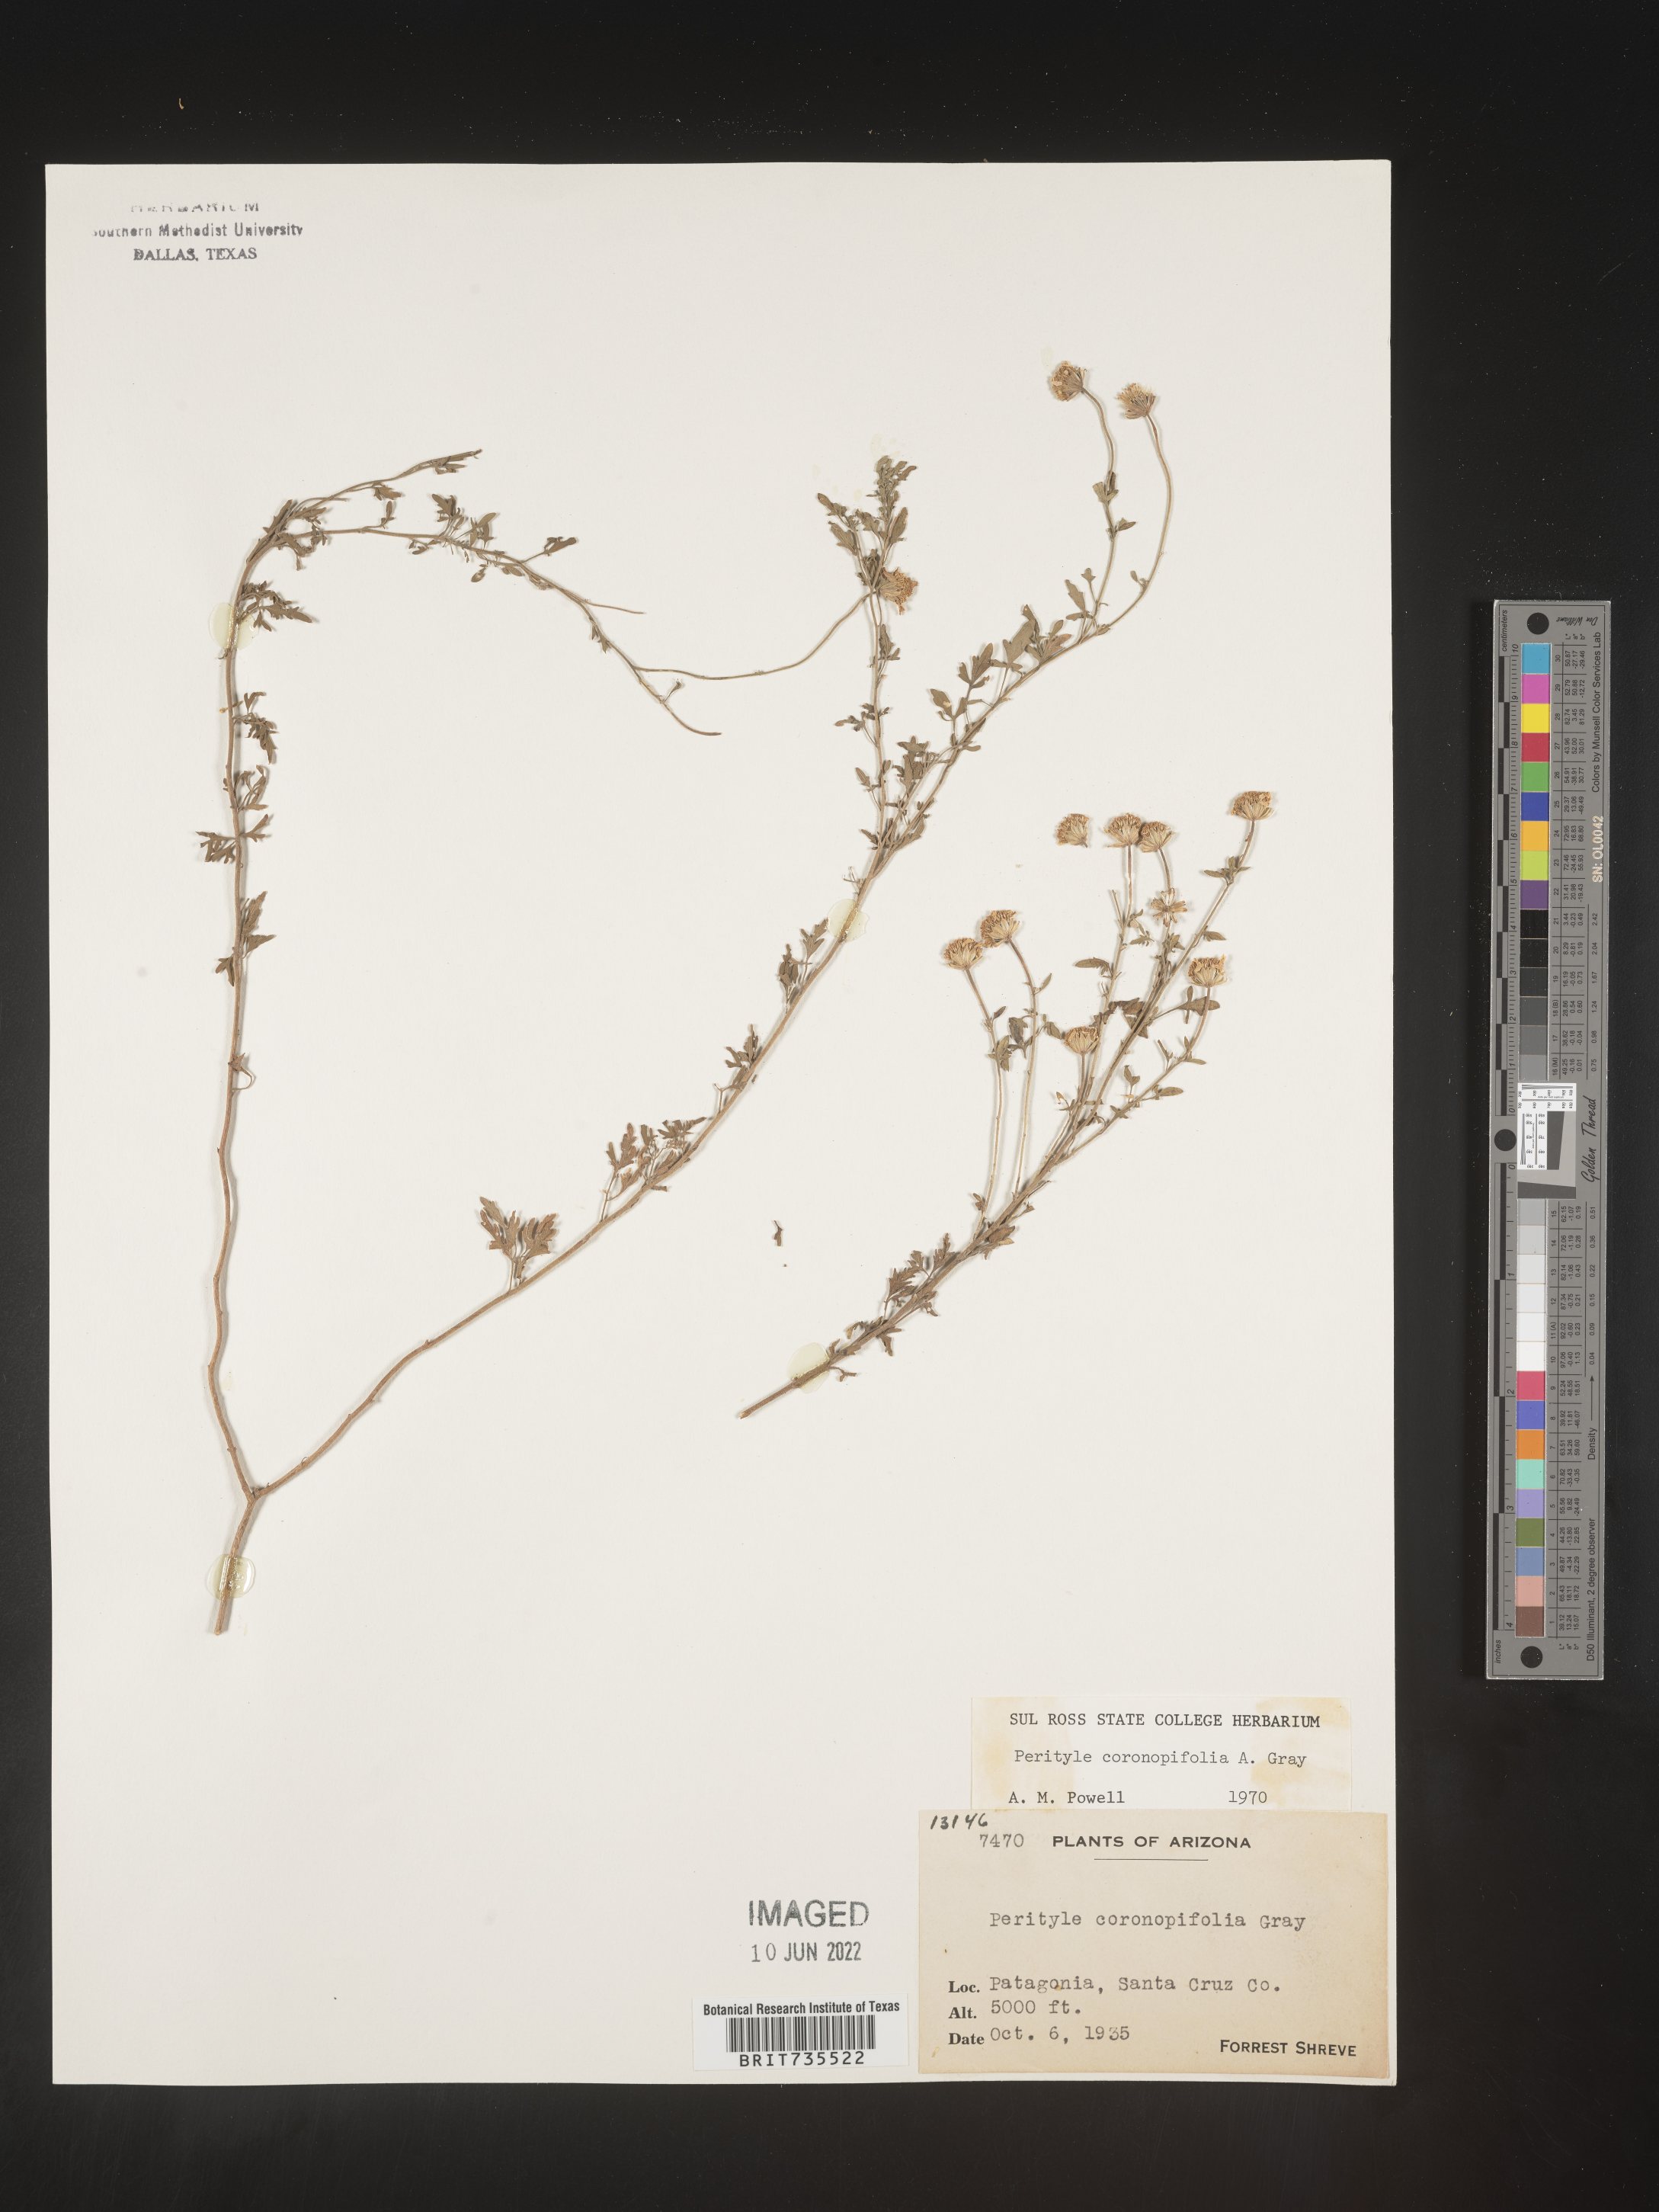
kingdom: Plantae
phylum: Tracheophyta
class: Magnoliopsida
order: Asterales
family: Asteraceae
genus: Perityle
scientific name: Perityle
